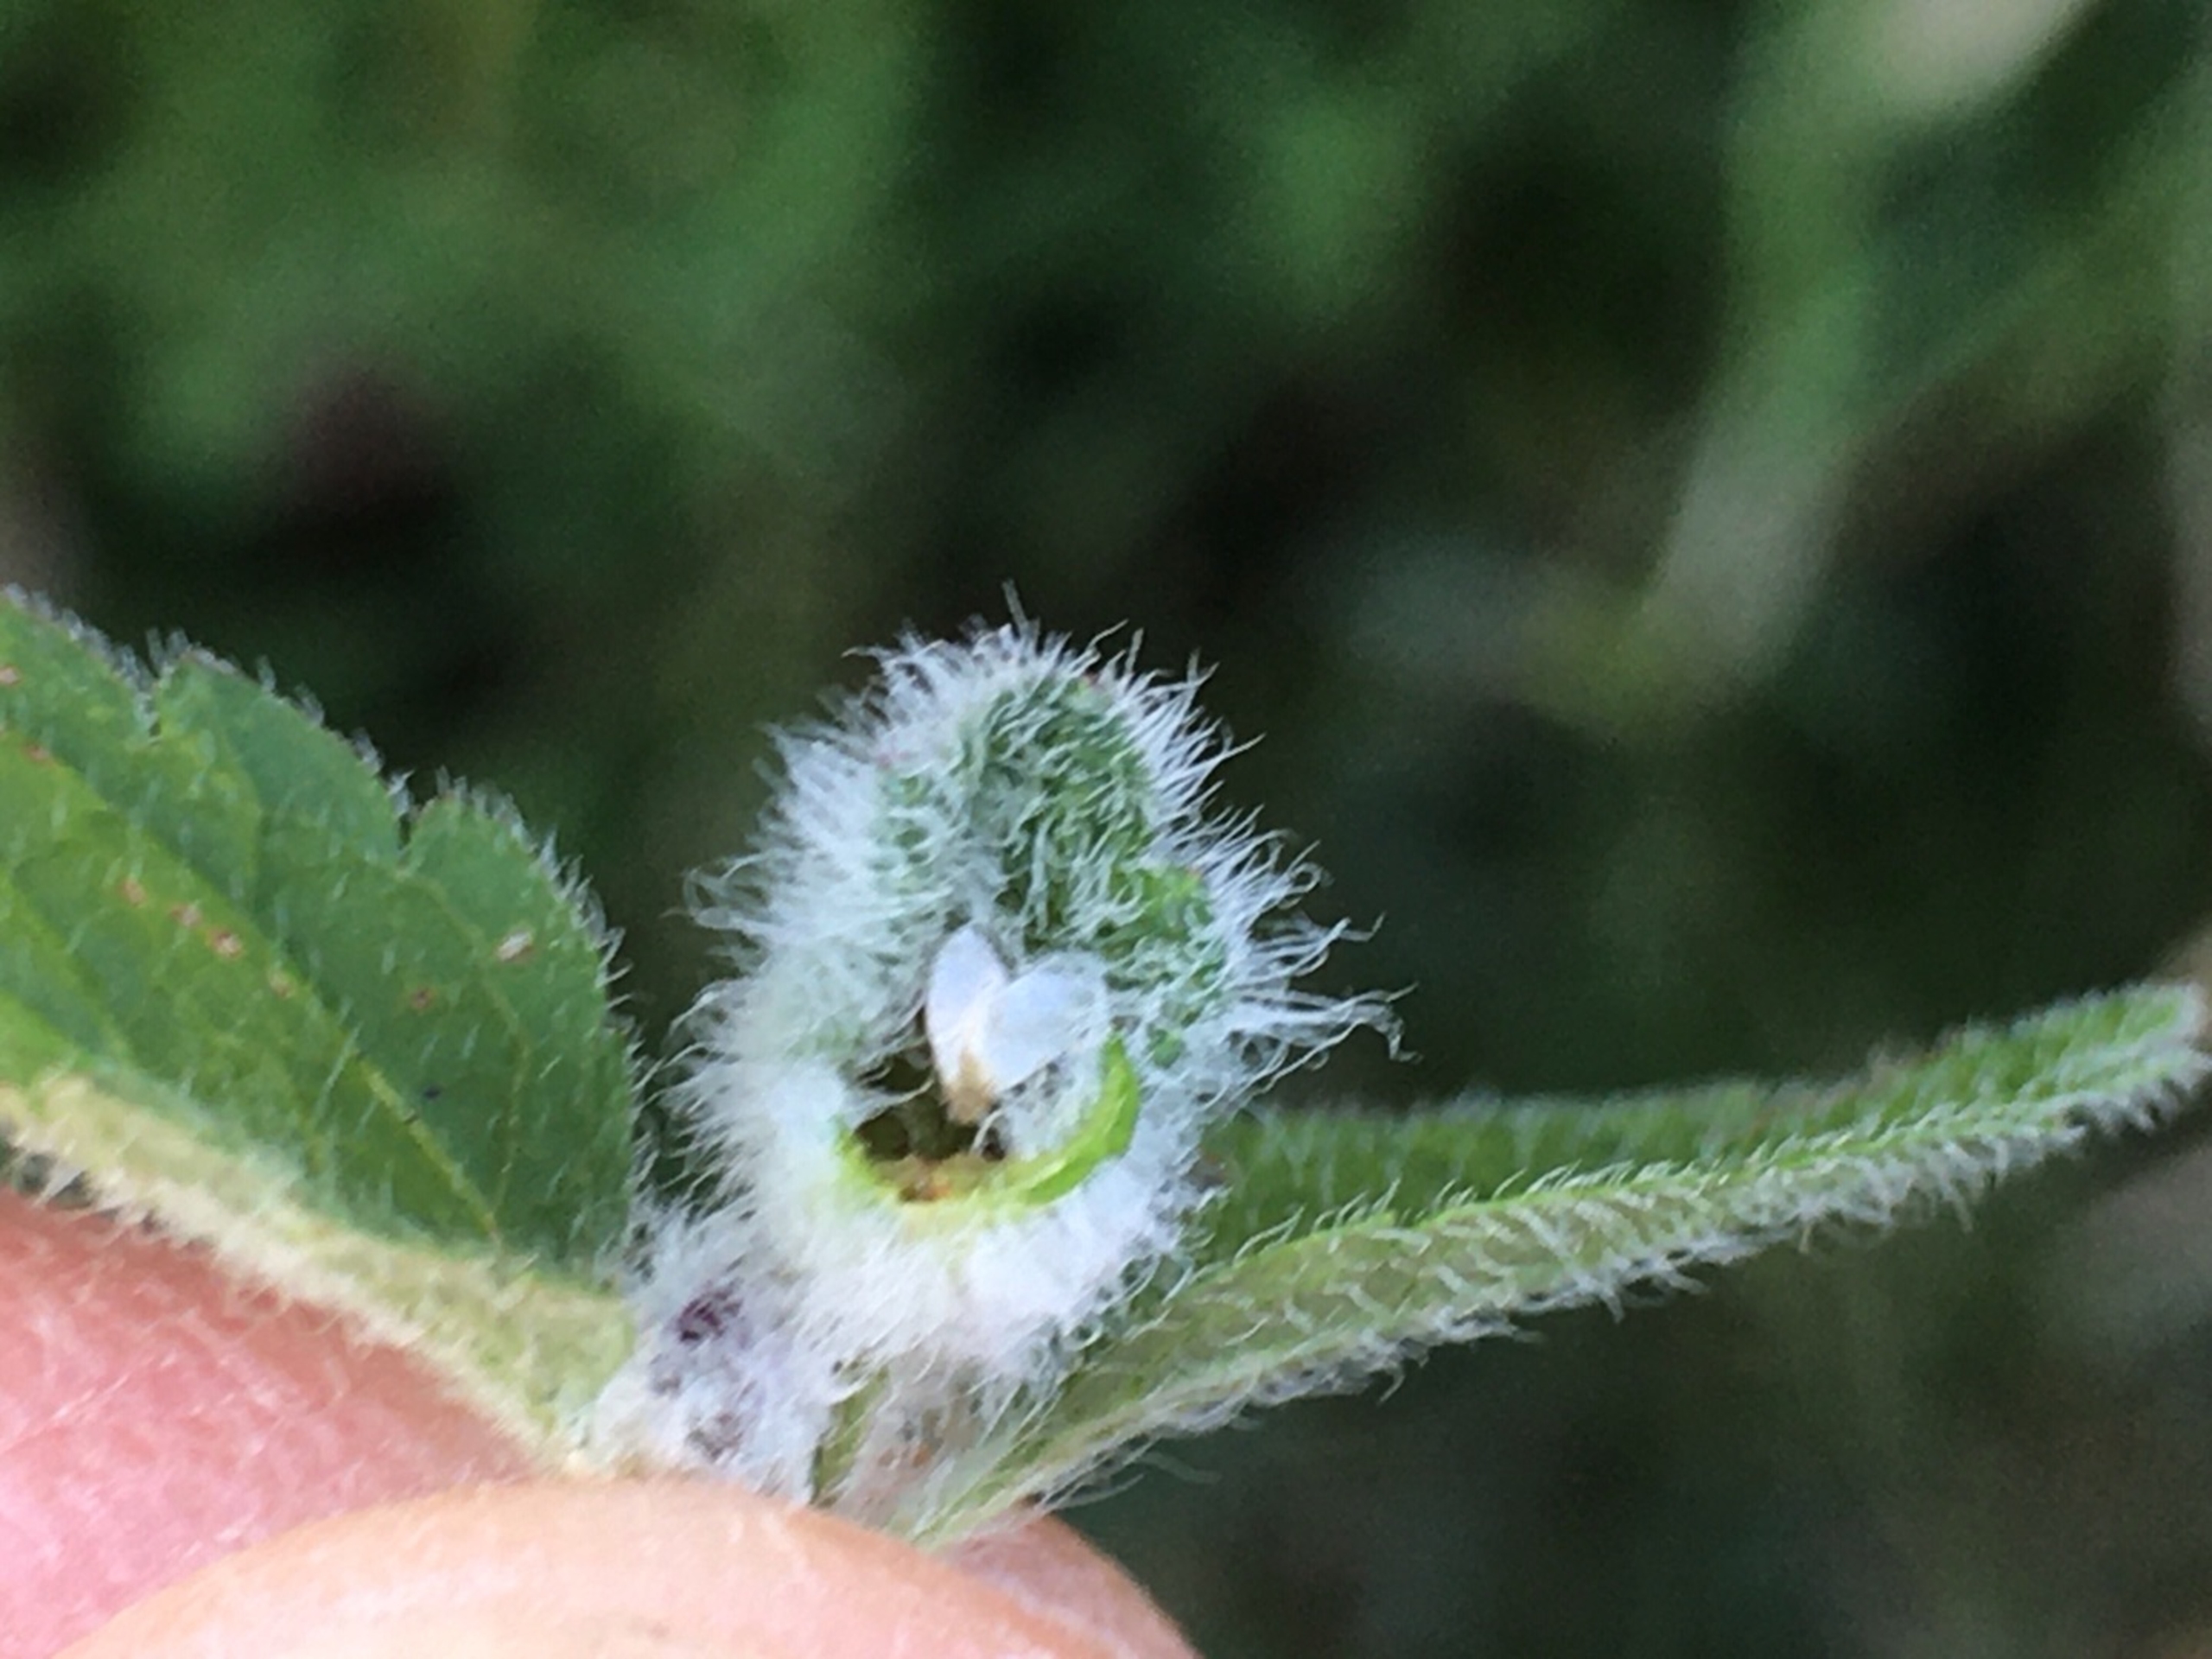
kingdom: Animalia
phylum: Arthropoda
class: Insecta
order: Diptera
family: Cecidomyiidae
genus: Jaapiella
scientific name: Jaapiella veronicae
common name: Ærenprisgalmyg
